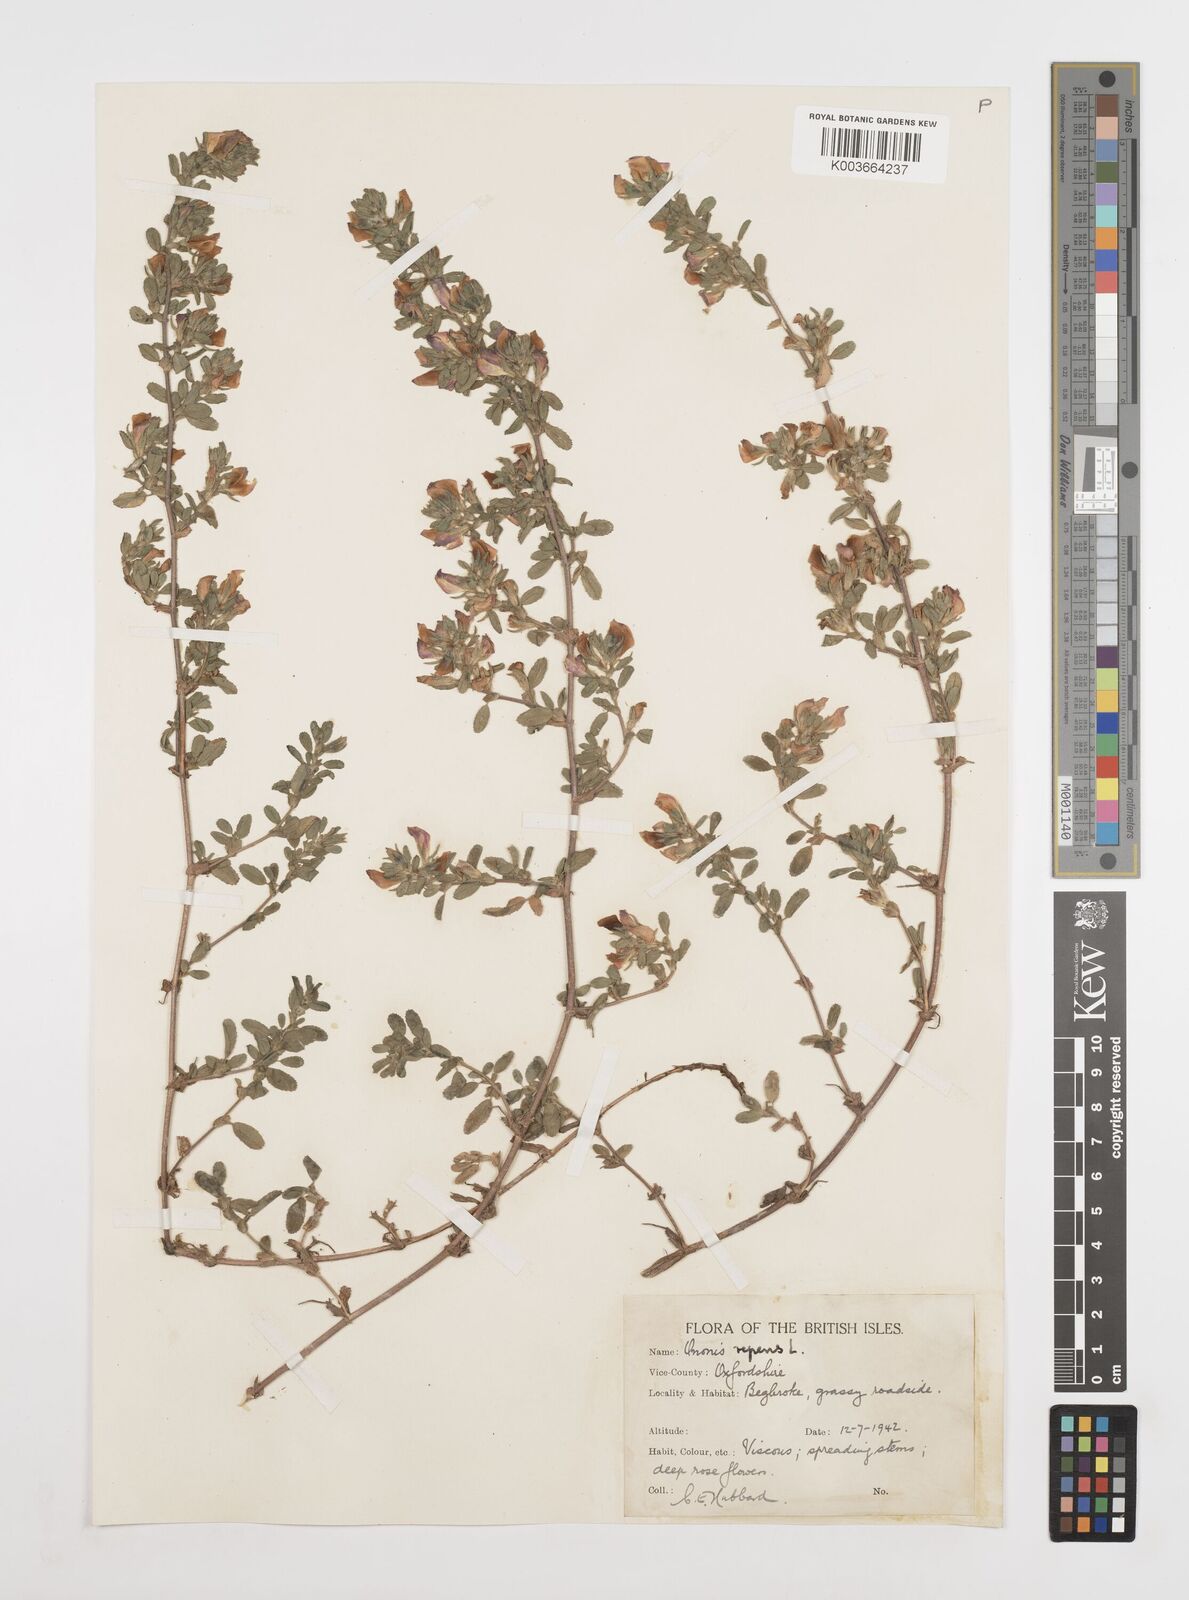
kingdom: Plantae
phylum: Tracheophyta
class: Magnoliopsida
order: Fabales
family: Fabaceae
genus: Ononis
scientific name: Ononis spinosa
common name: Spiny restharrow
